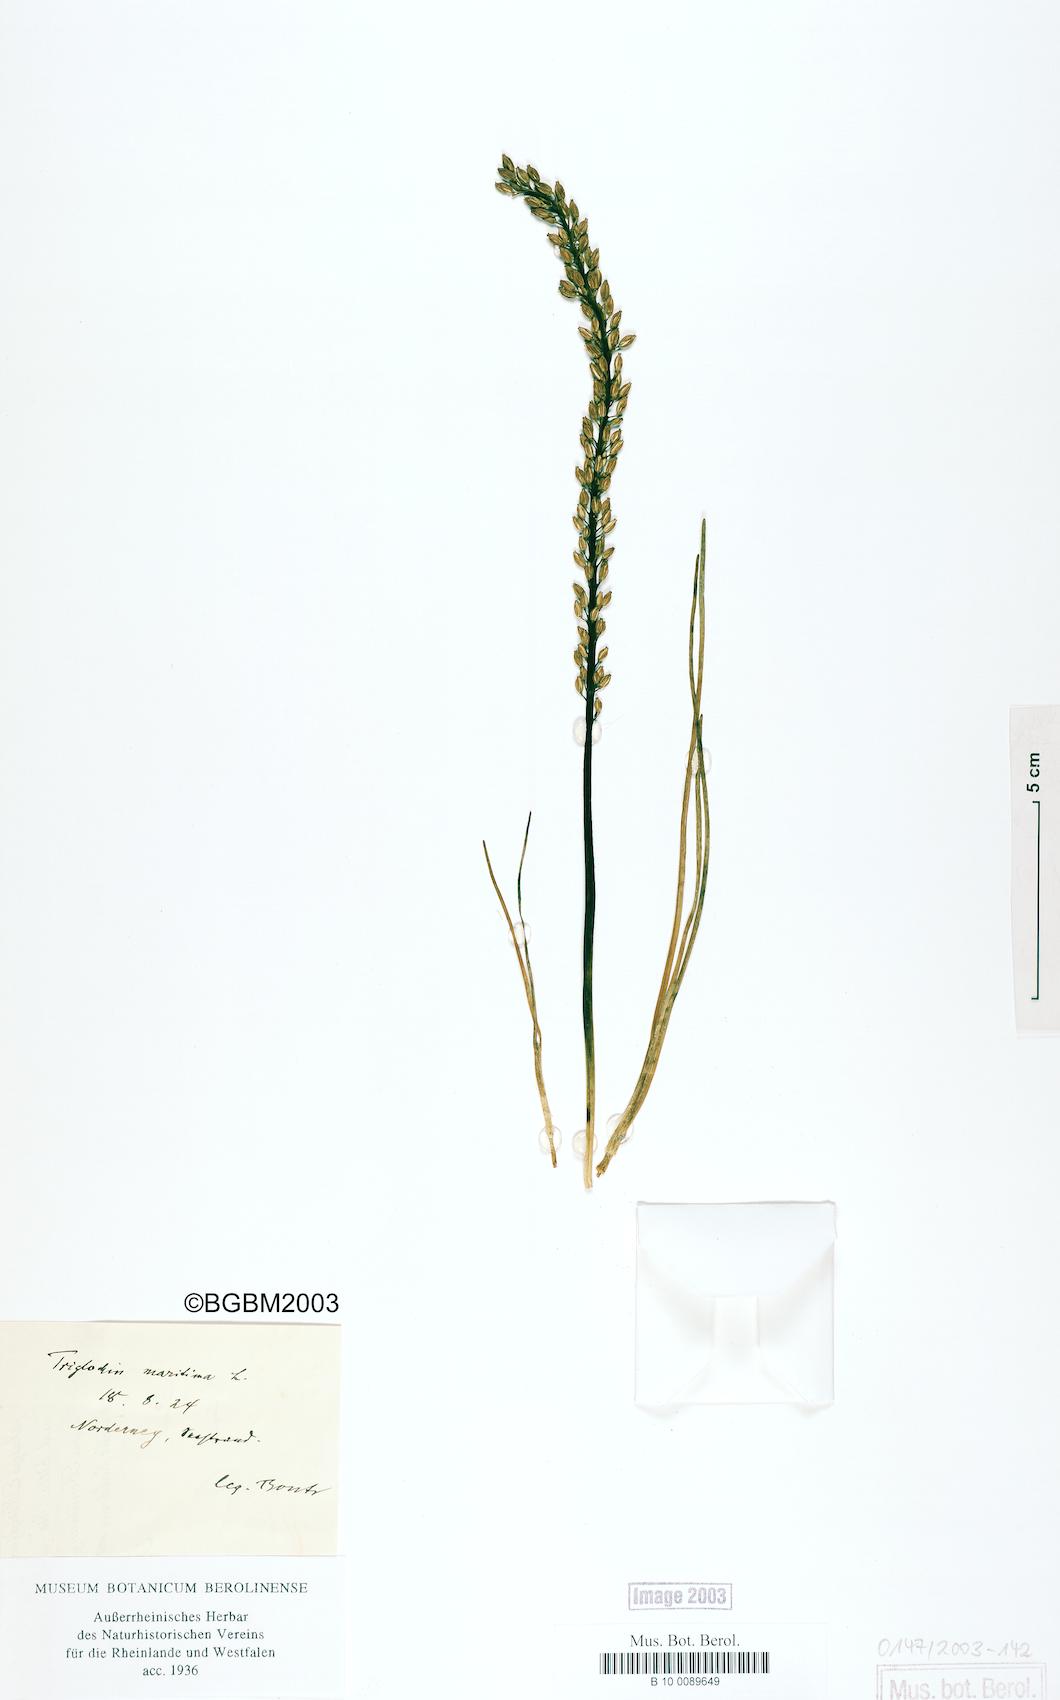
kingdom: Plantae
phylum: Tracheophyta
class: Liliopsida
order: Alismatales
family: Juncaginaceae
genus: Triglochin
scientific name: Triglochin maritima
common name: Sea arrowgrass
